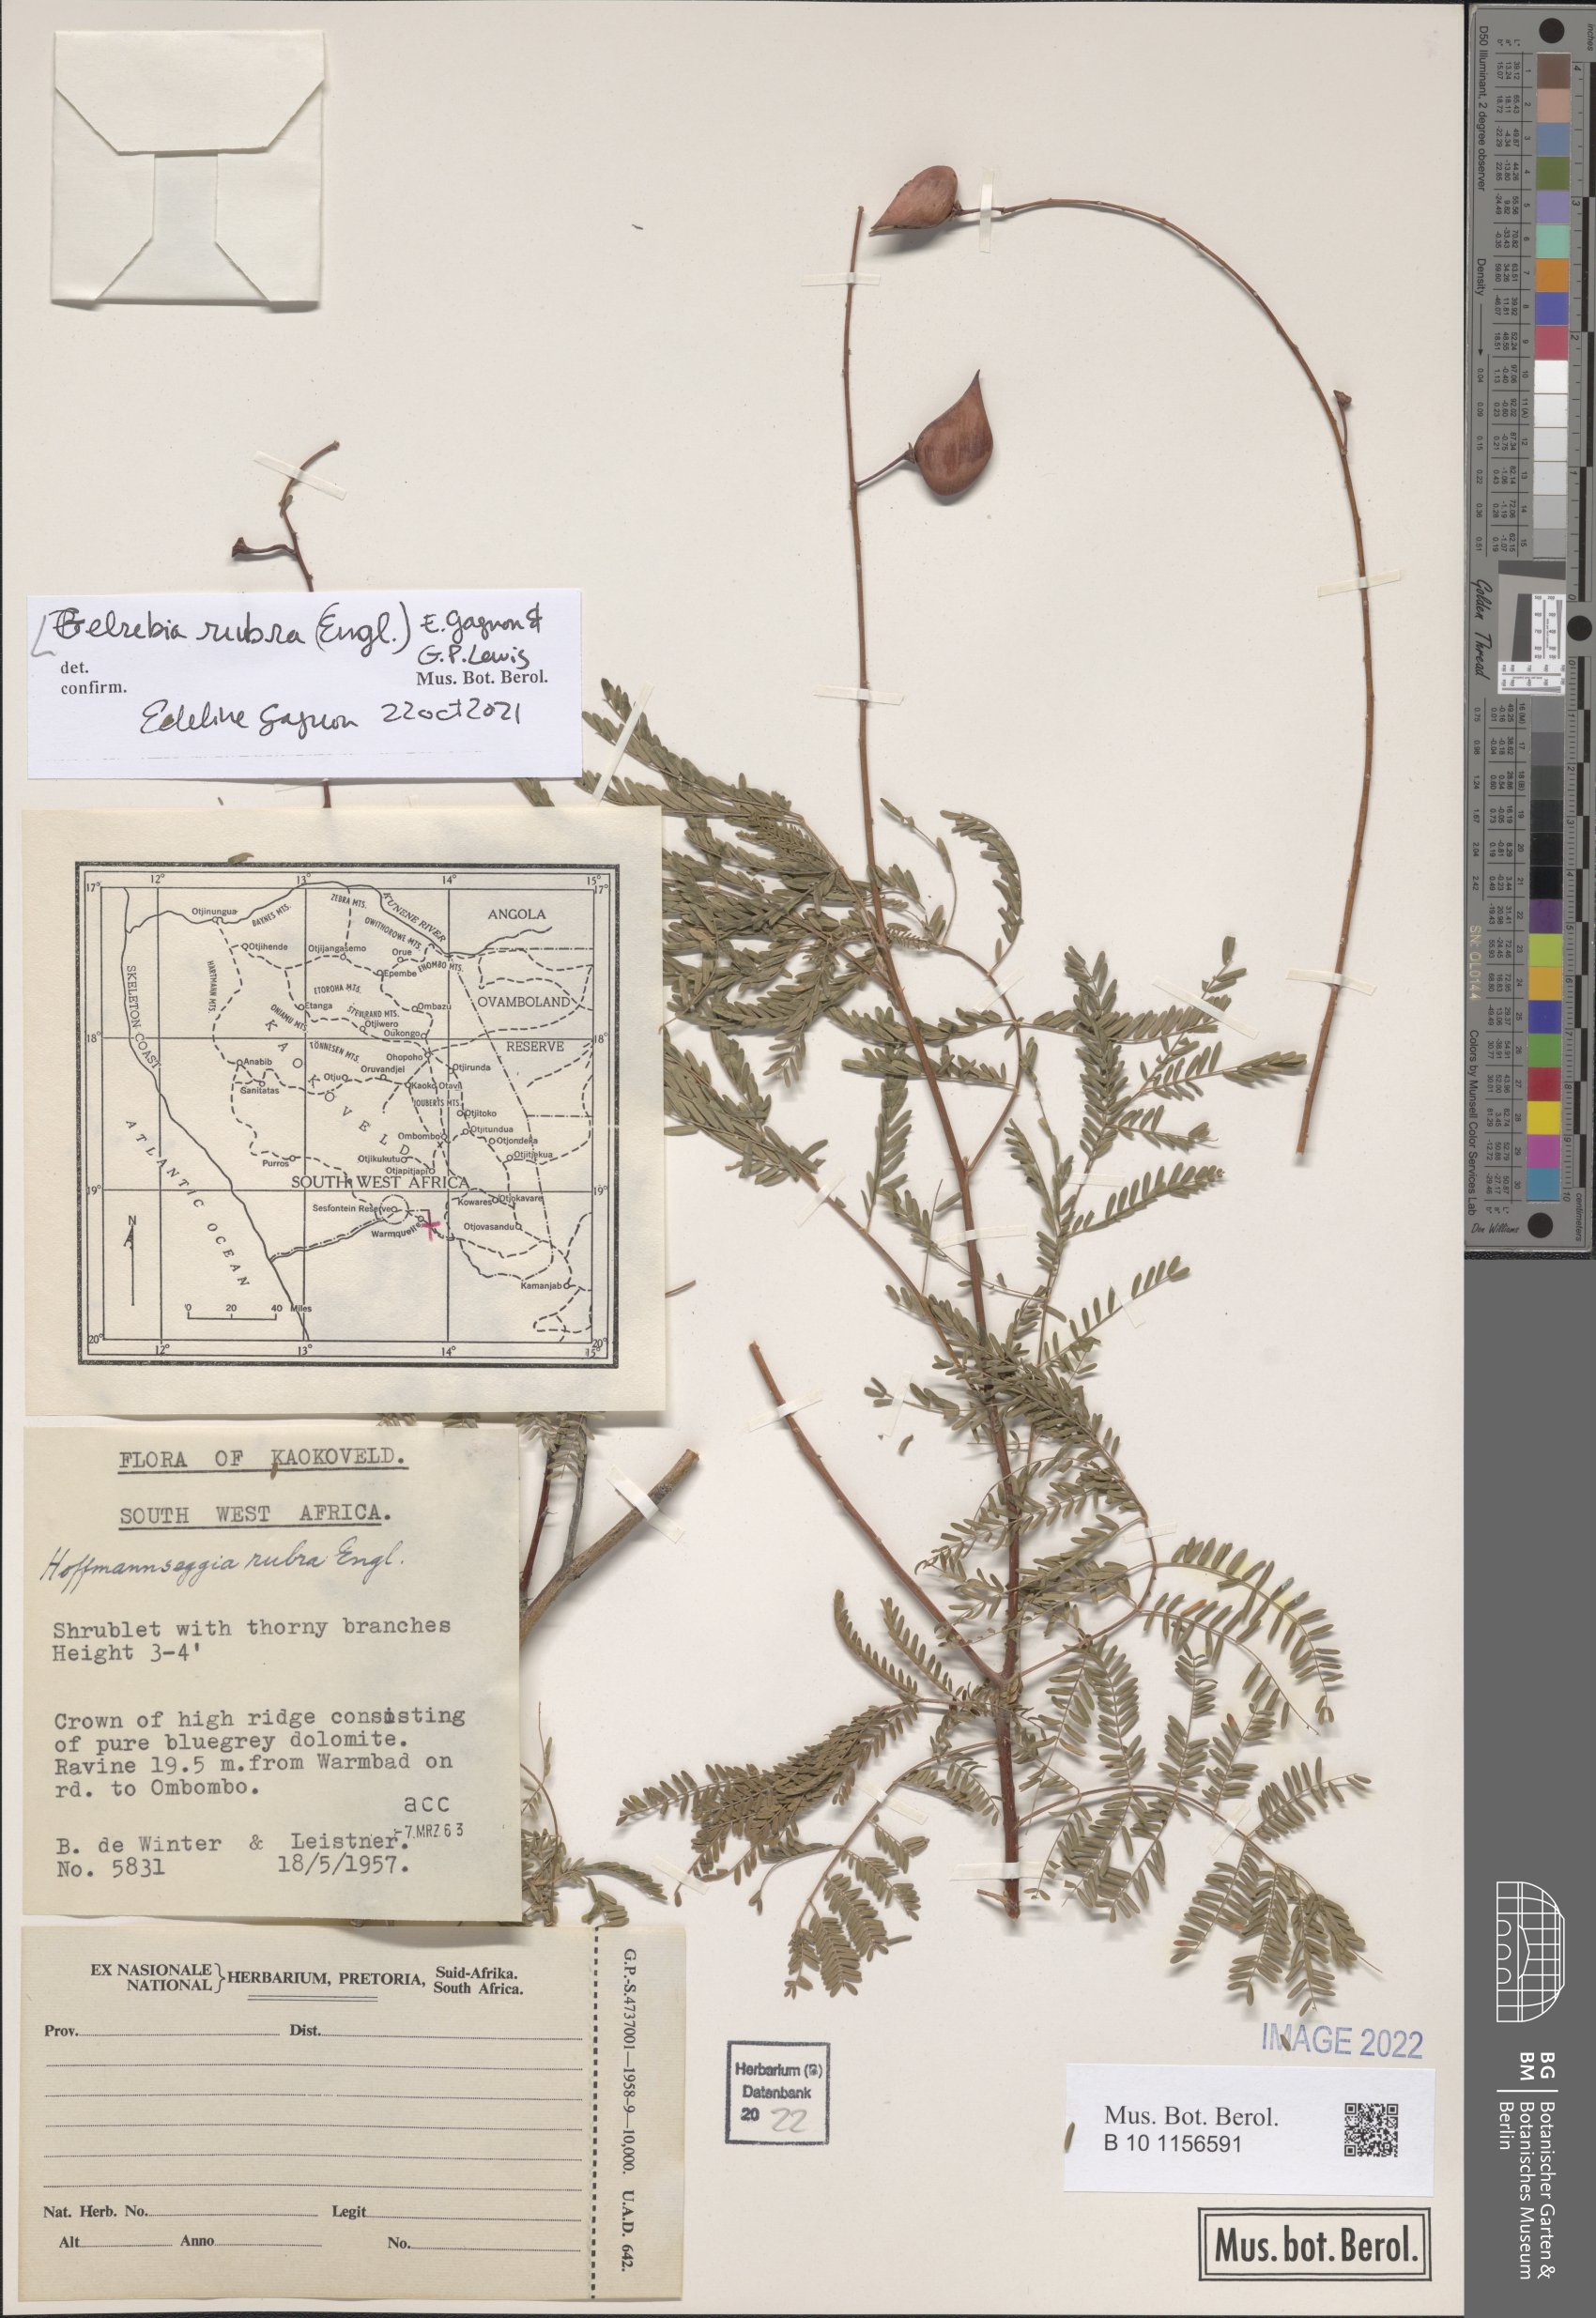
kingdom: Plantae
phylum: Tracheophyta
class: Magnoliopsida
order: Fabales
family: Fabaceae
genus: Gelrebia
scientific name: Gelrebia rubra
